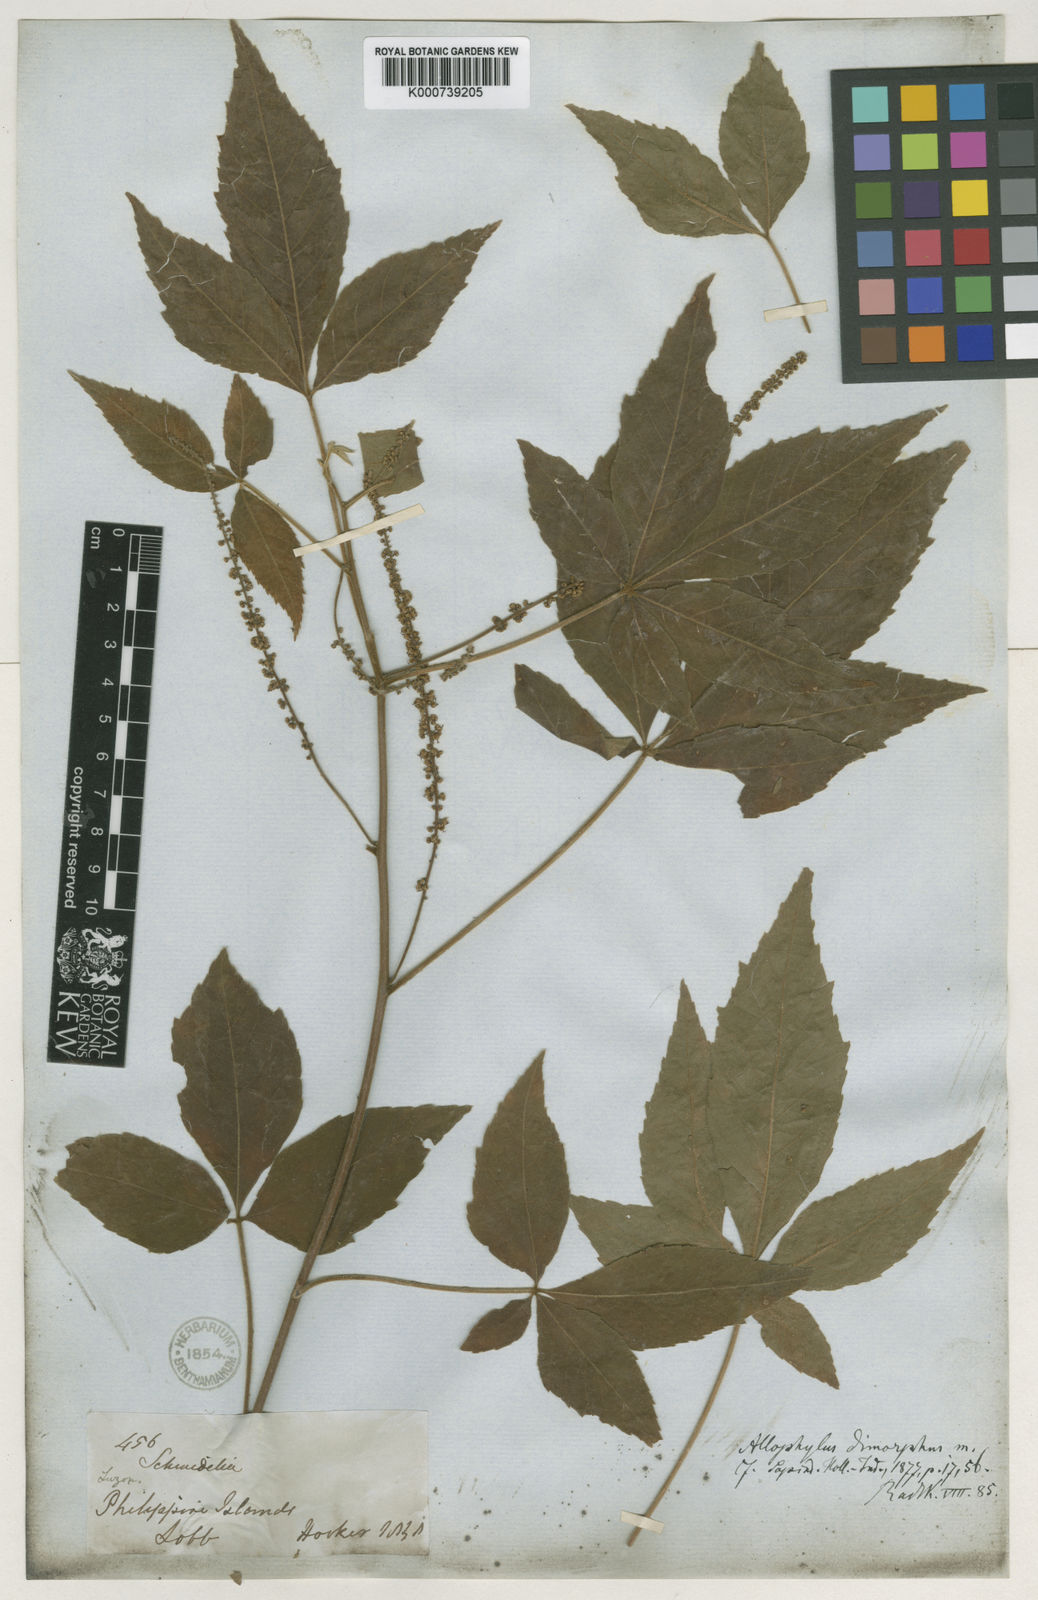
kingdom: Plantae
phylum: Tracheophyta
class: Magnoliopsida
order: Sapindales
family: Sapindaceae
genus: Allophylus
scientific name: Allophylus dimorphus
